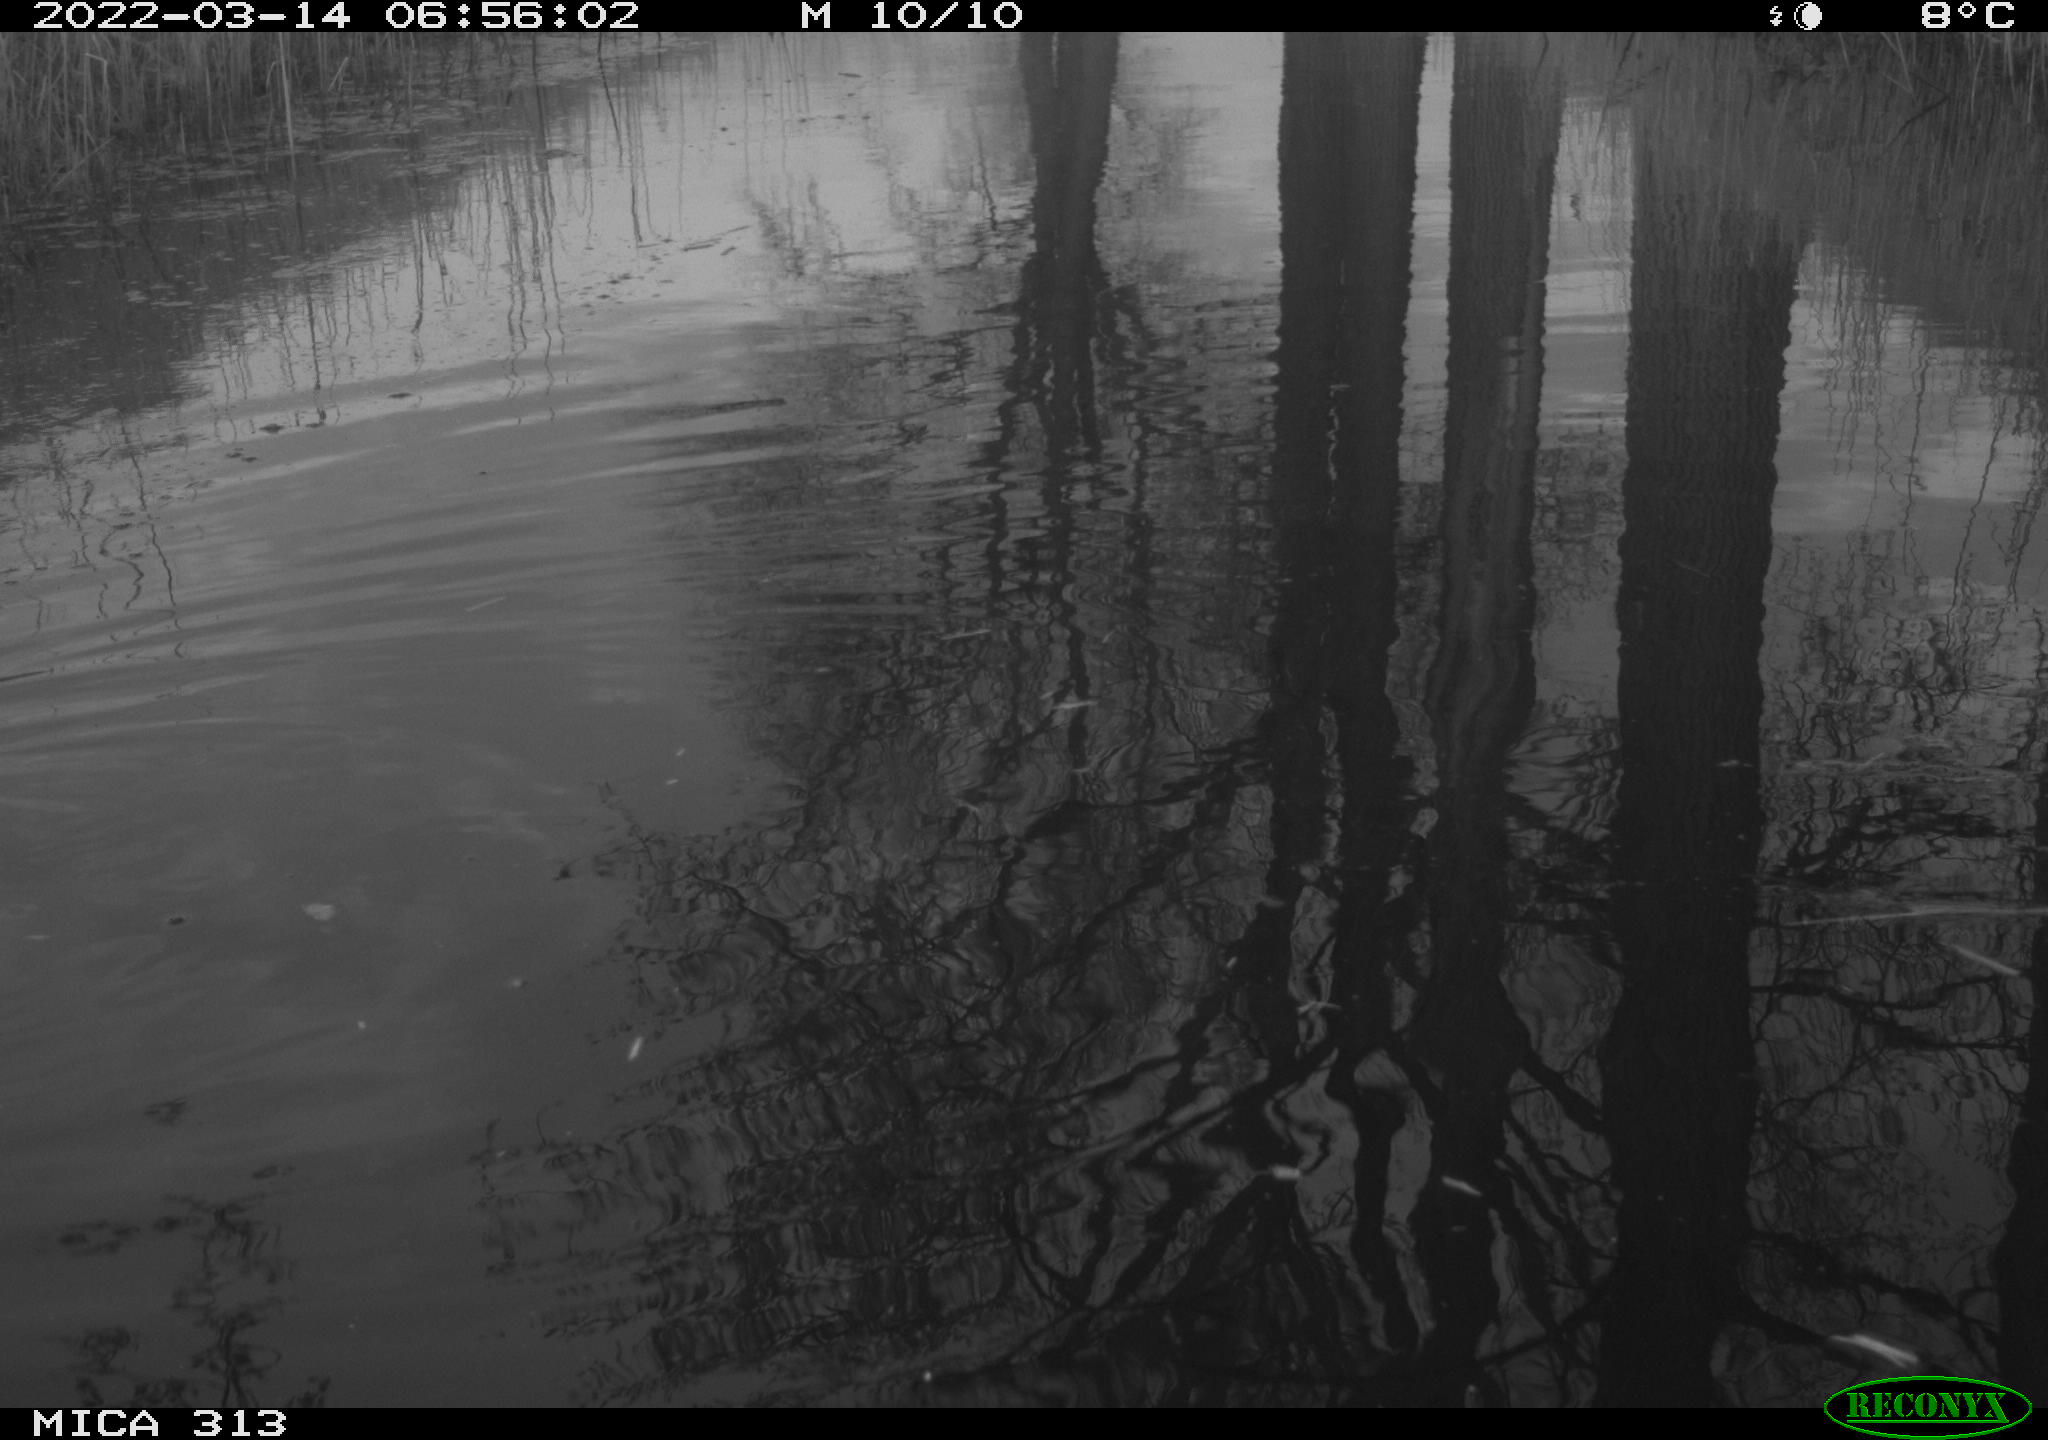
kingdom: Animalia
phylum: Chordata
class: Aves
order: Gruiformes
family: Rallidae
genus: Gallinula
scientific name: Gallinula chloropus
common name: Common moorhen
